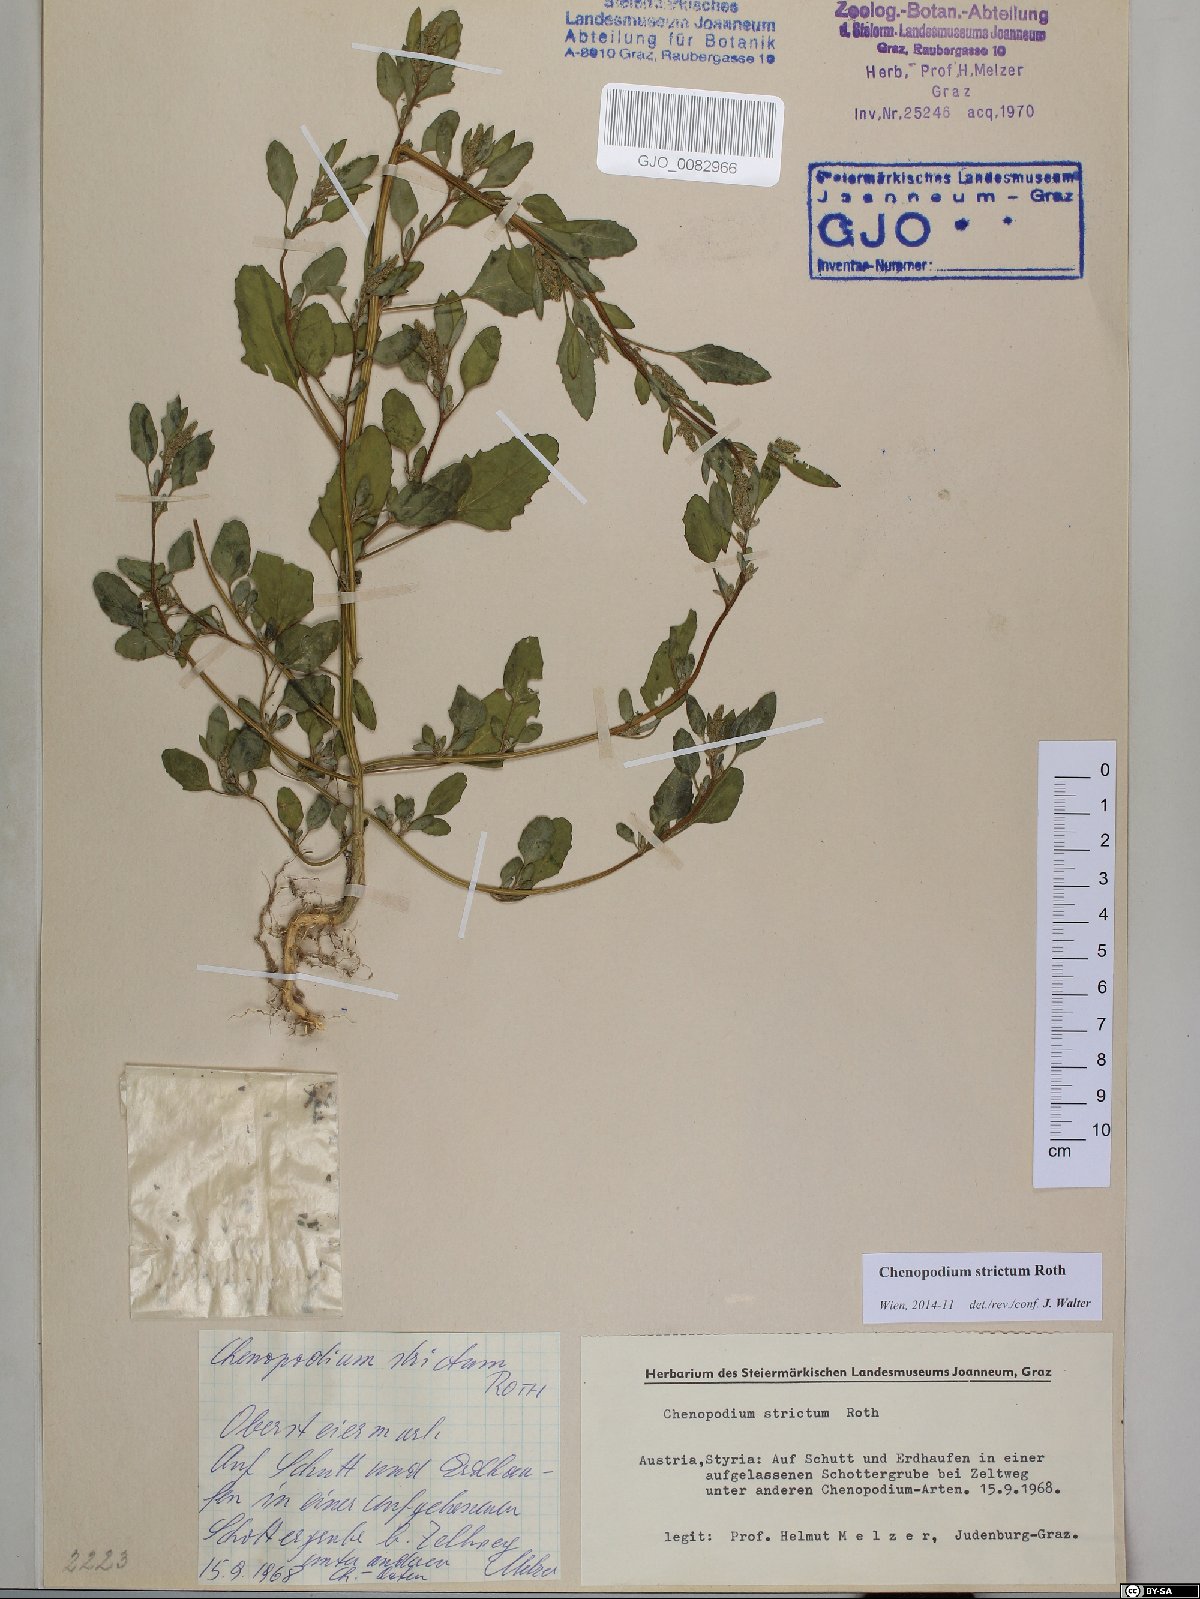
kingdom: Plantae
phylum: Tracheophyta
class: Magnoliopsida
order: Caryophyllales
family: Amaranthaceae
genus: Chenopodium
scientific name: Chenopodium album
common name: Fat-hen
